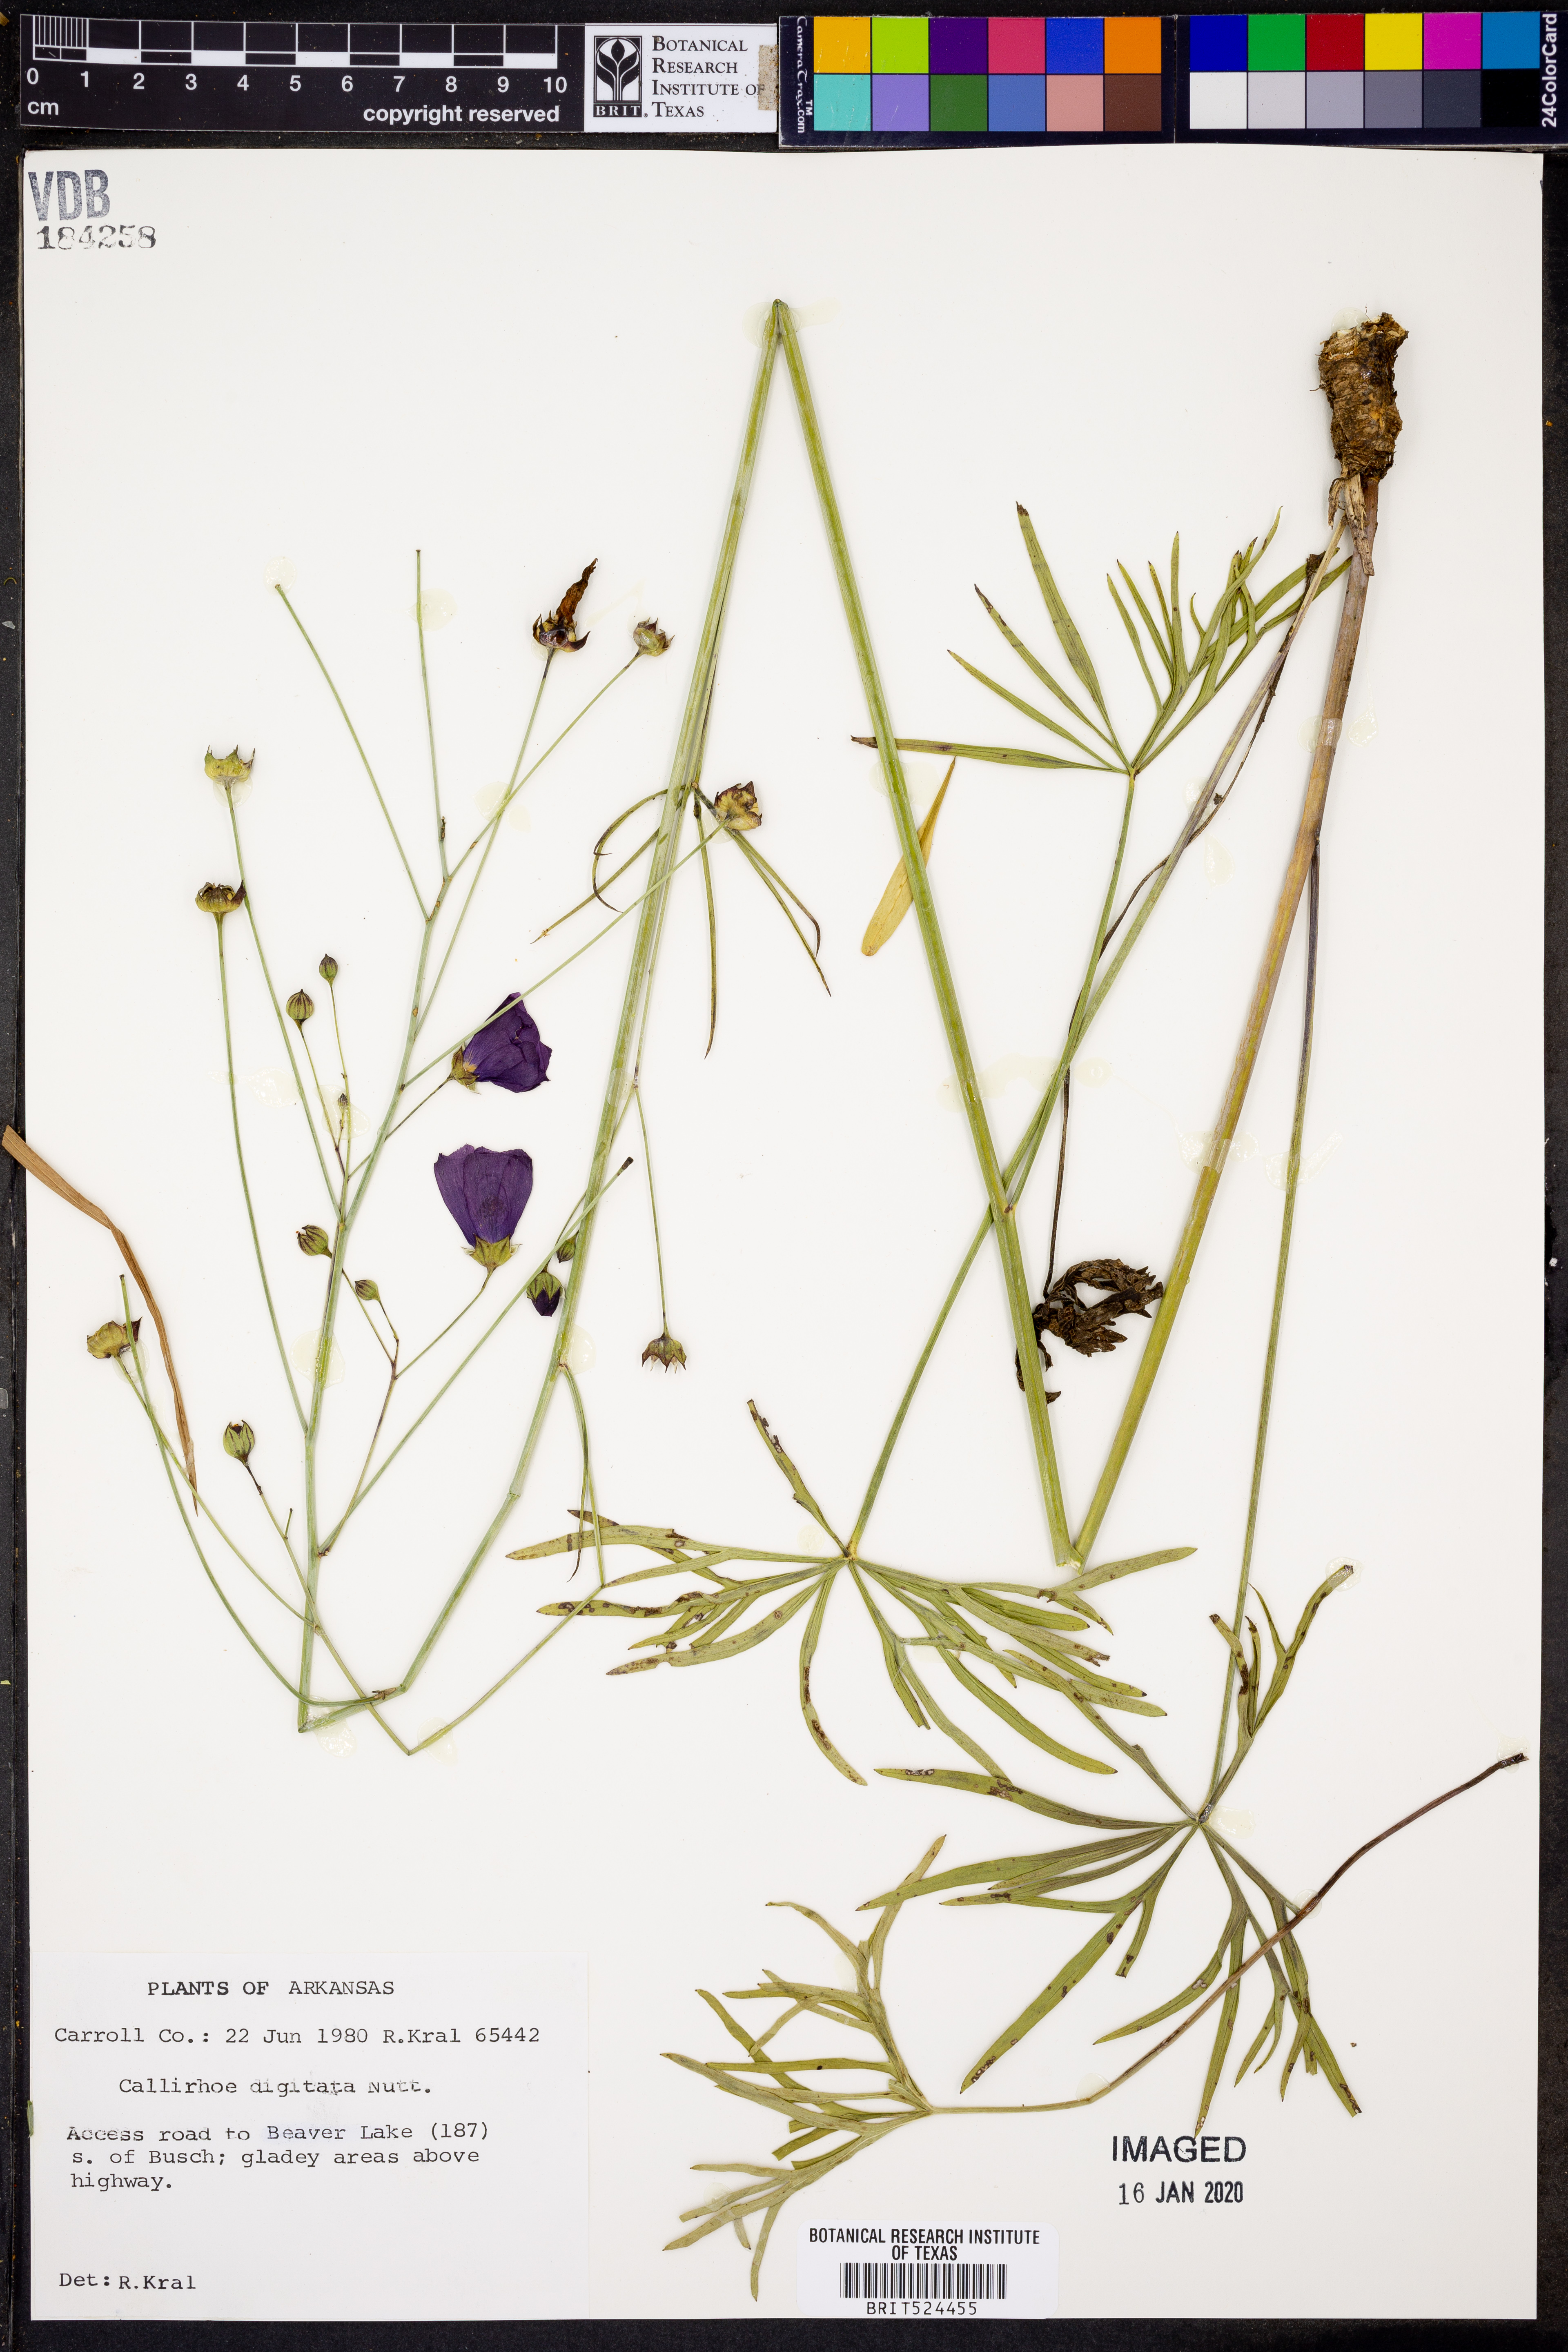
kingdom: Plantae
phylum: Tracheophyta
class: Magnoliopsida
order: Malvales
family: Malvaceae
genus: Callirhoe
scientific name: Callirhoe digitata
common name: Finger poppy-mallow
